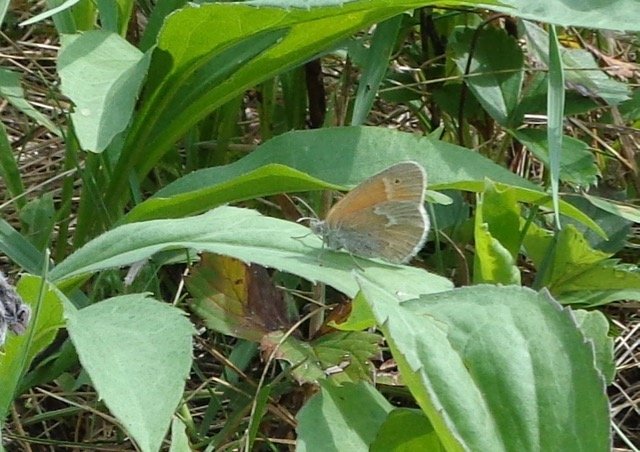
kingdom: Animalia
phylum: Arthropoda
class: Insecta
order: Lepidoptera
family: Nymphalidae
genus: Coenonympha
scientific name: Coenonympha tullia
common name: Large Heath
